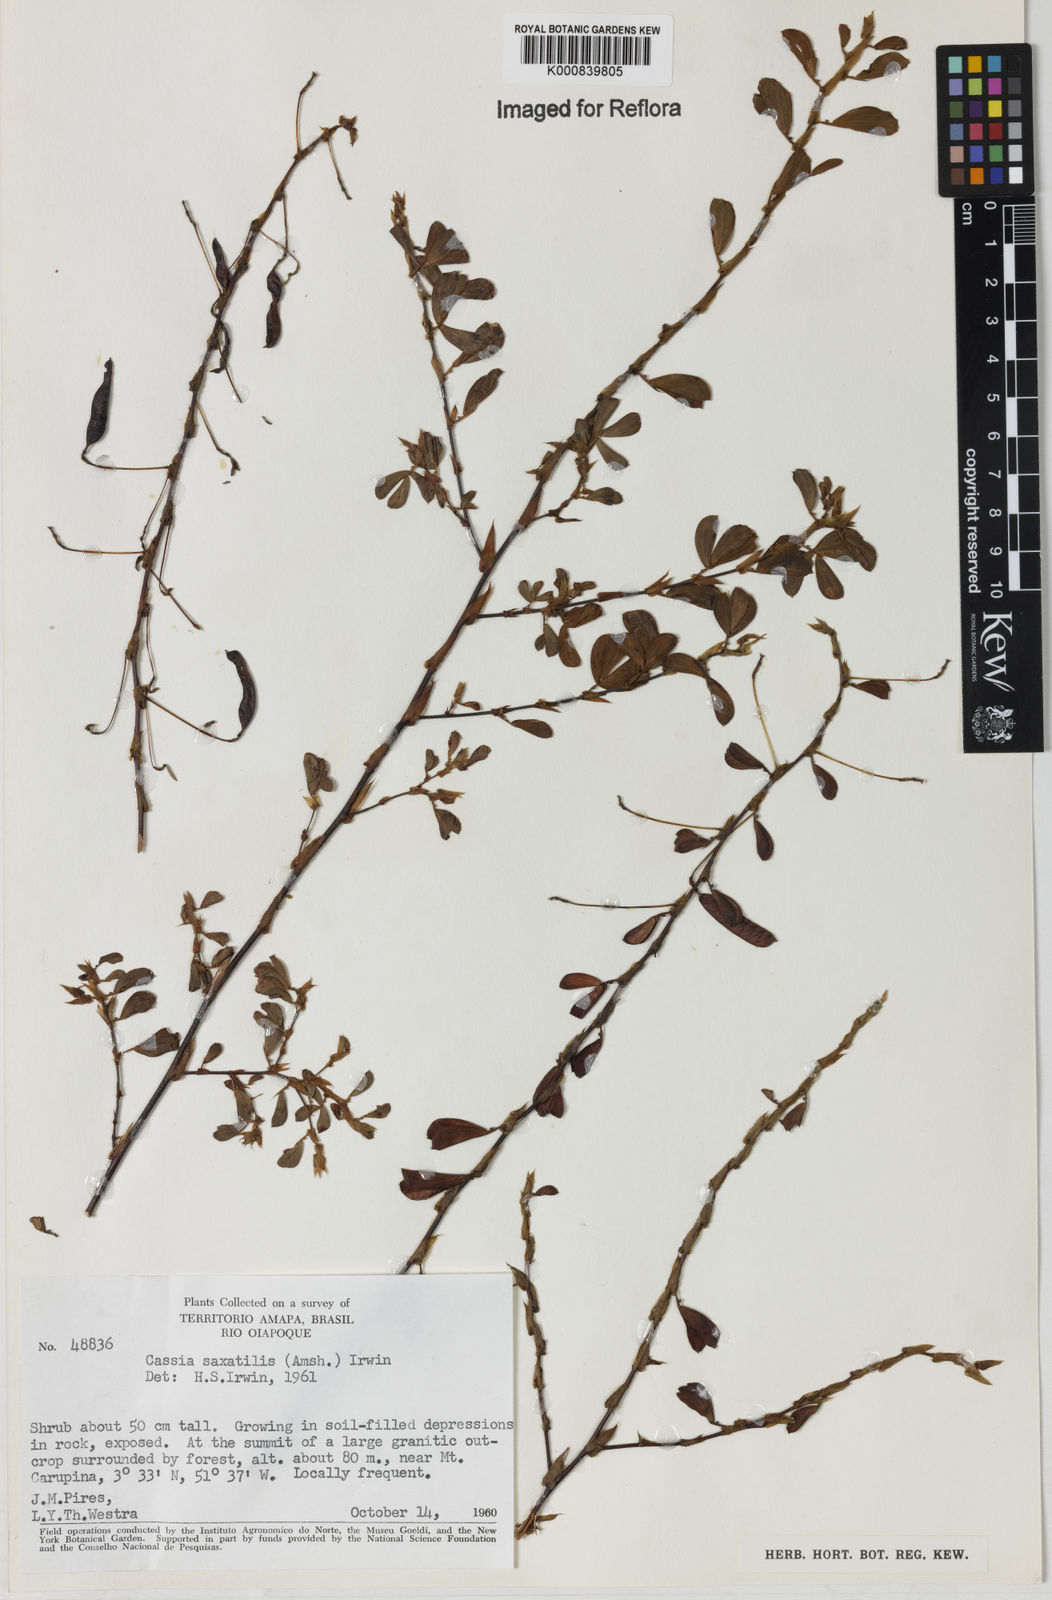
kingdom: Plantae
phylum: Tracheophyta
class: Magnoliopsida
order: Fabales
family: Fabaceae
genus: Chamaecrista
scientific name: Chamaecrista desvauxii
